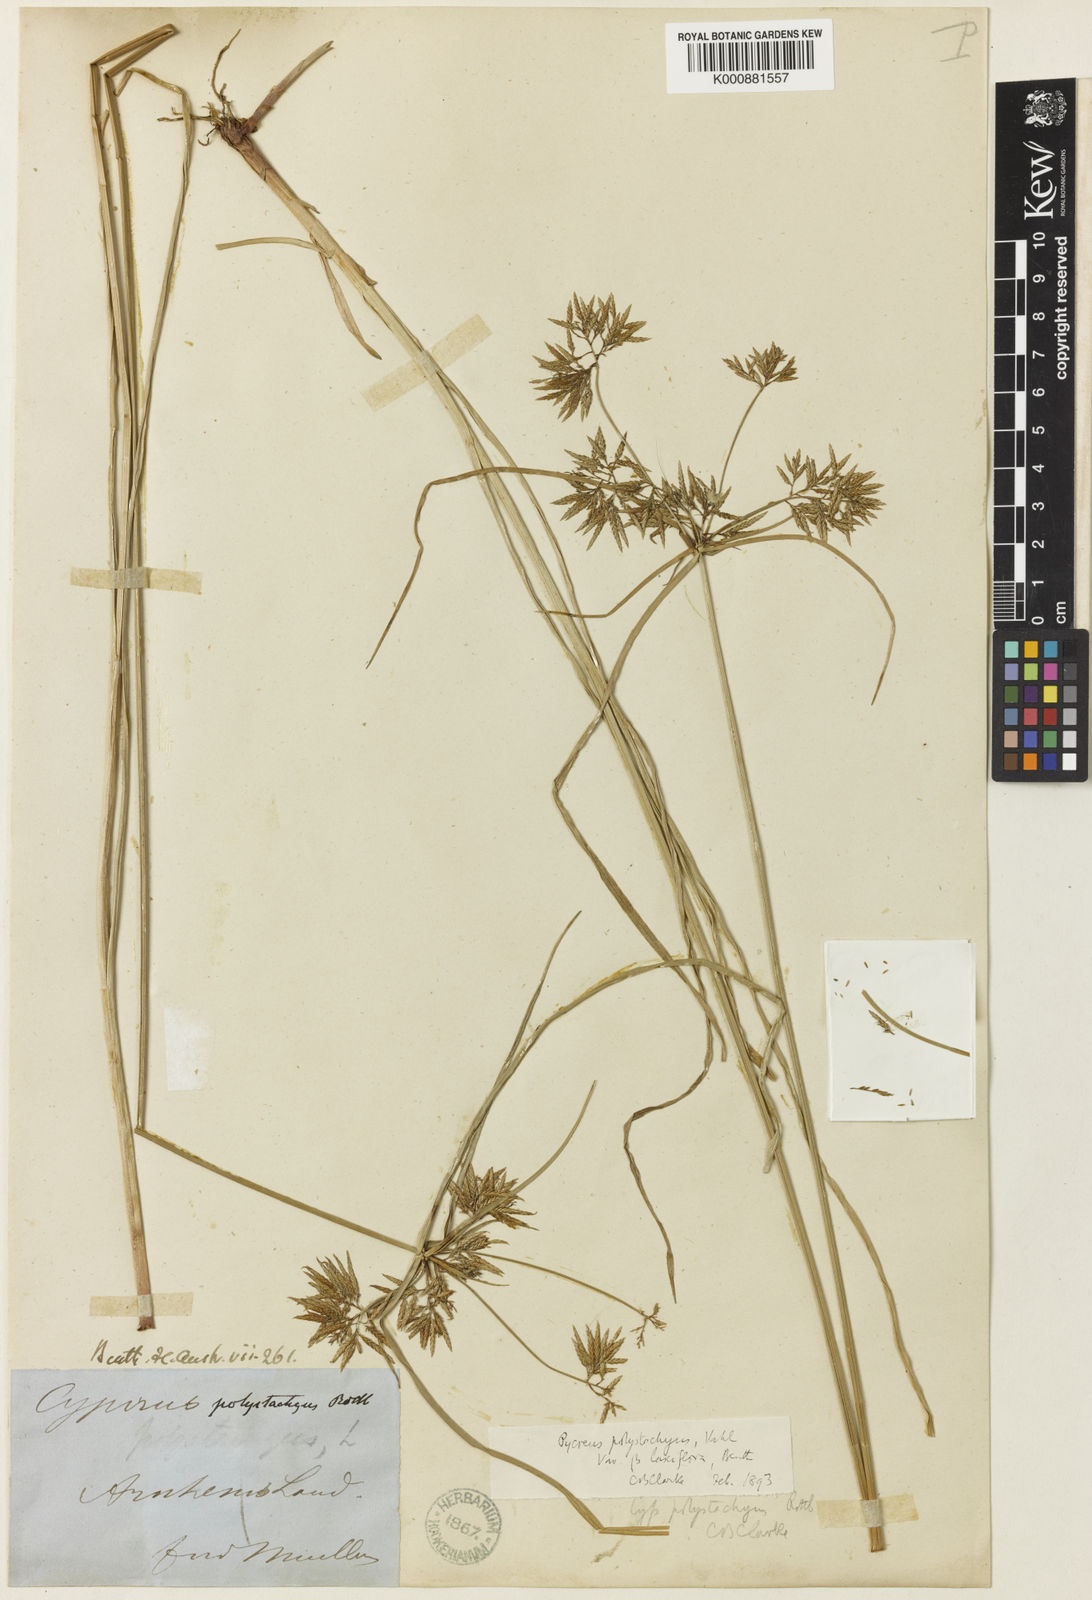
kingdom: Plantae
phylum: Tracheophyta
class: Liliopsida
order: Poales
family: Cyperaceae
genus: Cyperus
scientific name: Cyperus polystachyos
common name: Bunchy flat sedge
